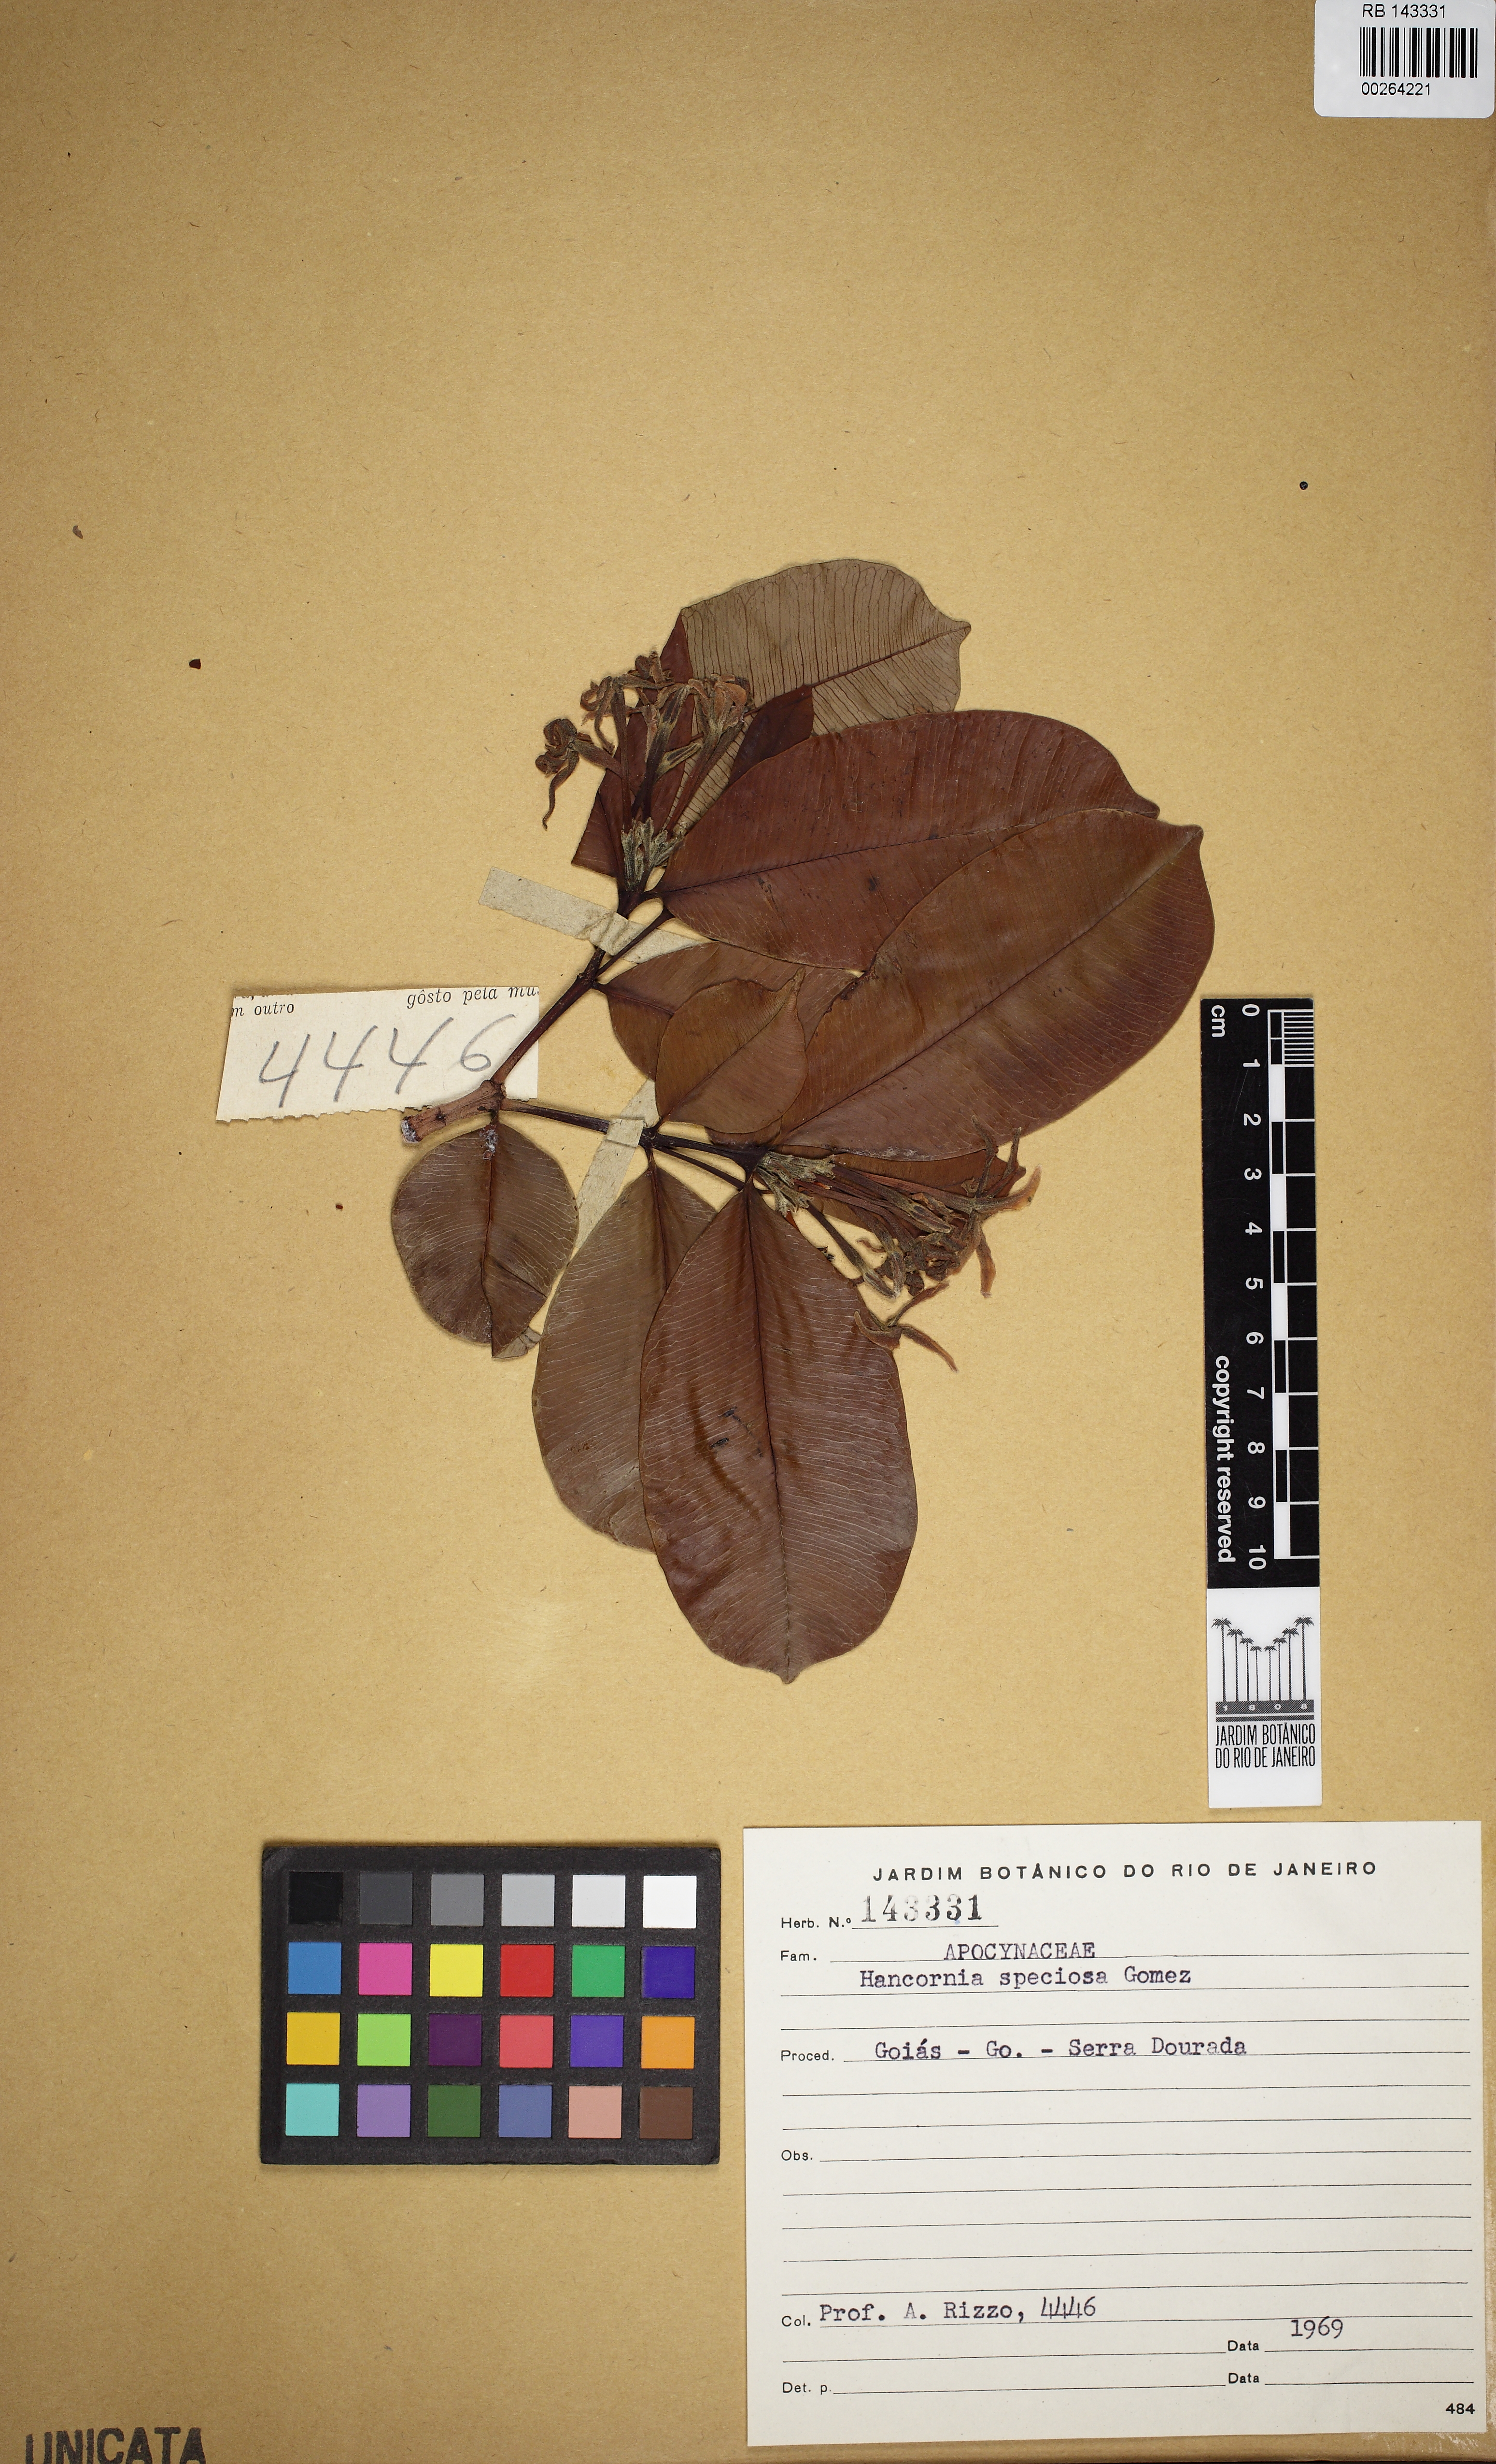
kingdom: Plantae
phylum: Tracheophyta
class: Magnoliopsida
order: Gentianales
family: Apocynaceae
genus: Hancornia
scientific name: Hancornia speciosa
